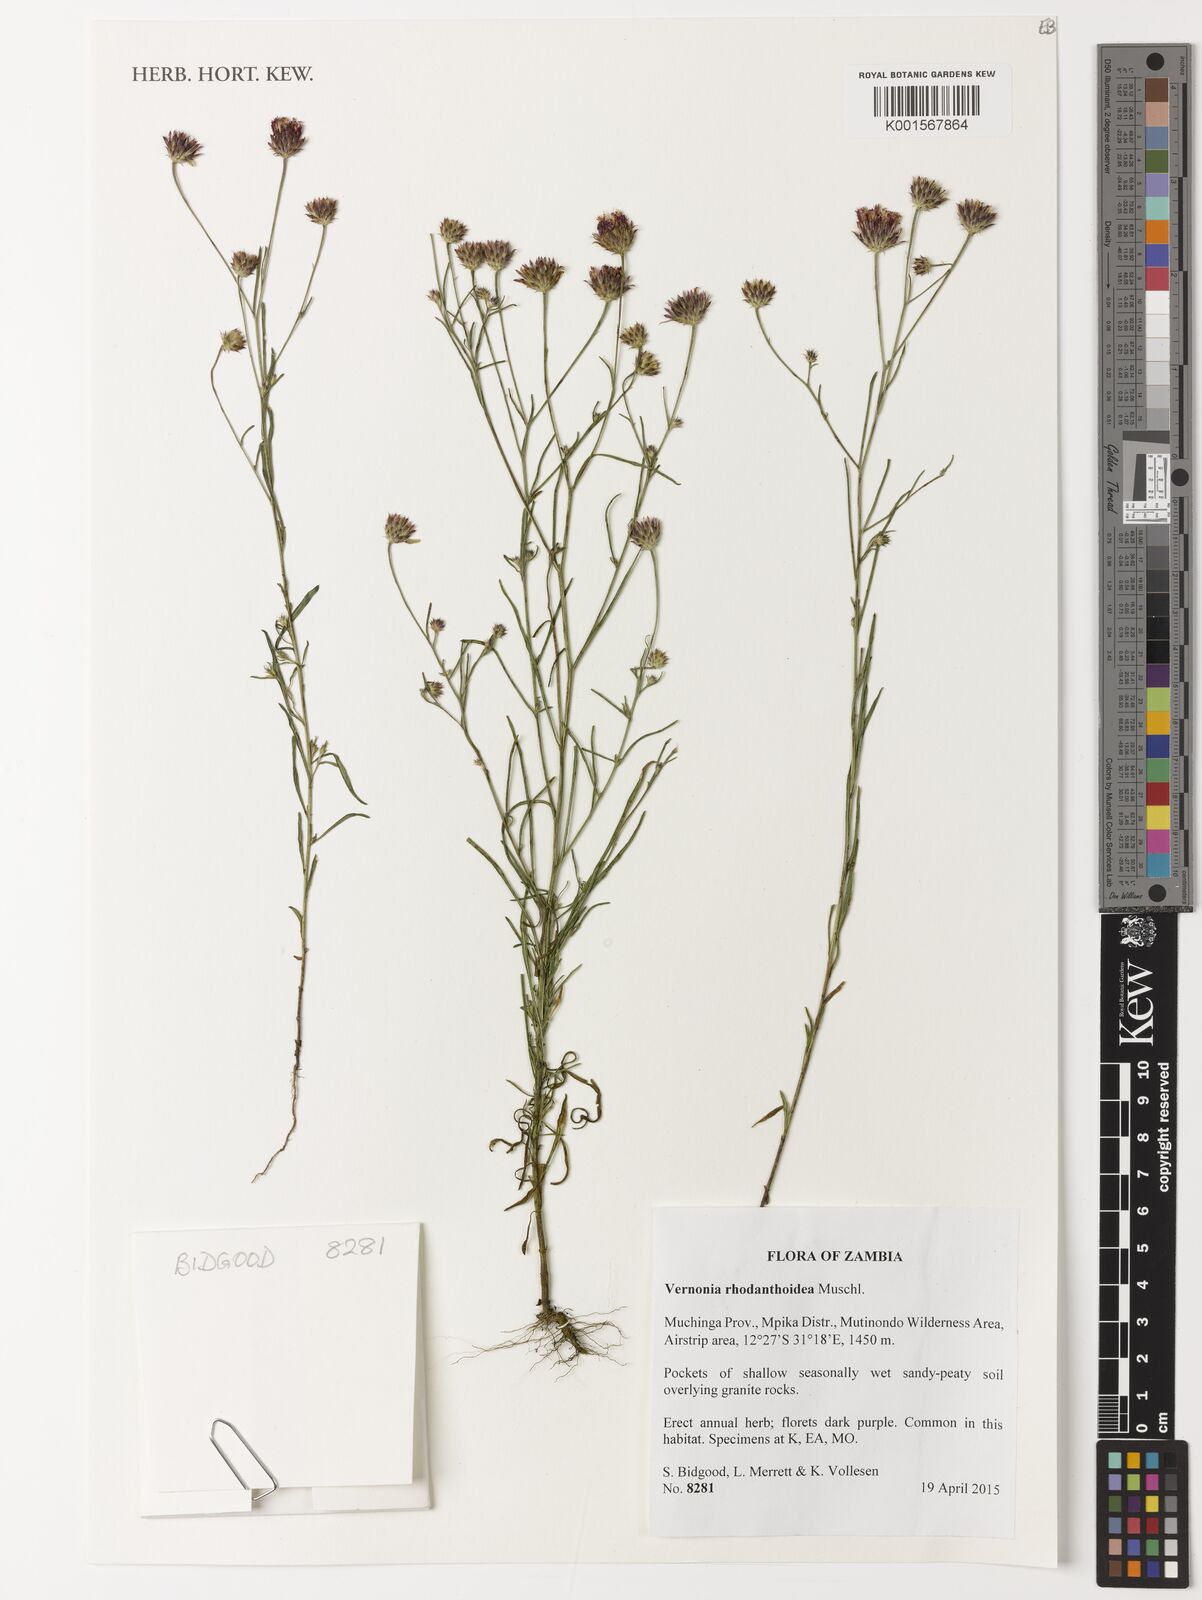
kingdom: Plantae
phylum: Tracheophyta
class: Magnoliopsida
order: Asterales
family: Asteraceae
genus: Vernonia
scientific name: Vernonia rhodanthoidea
